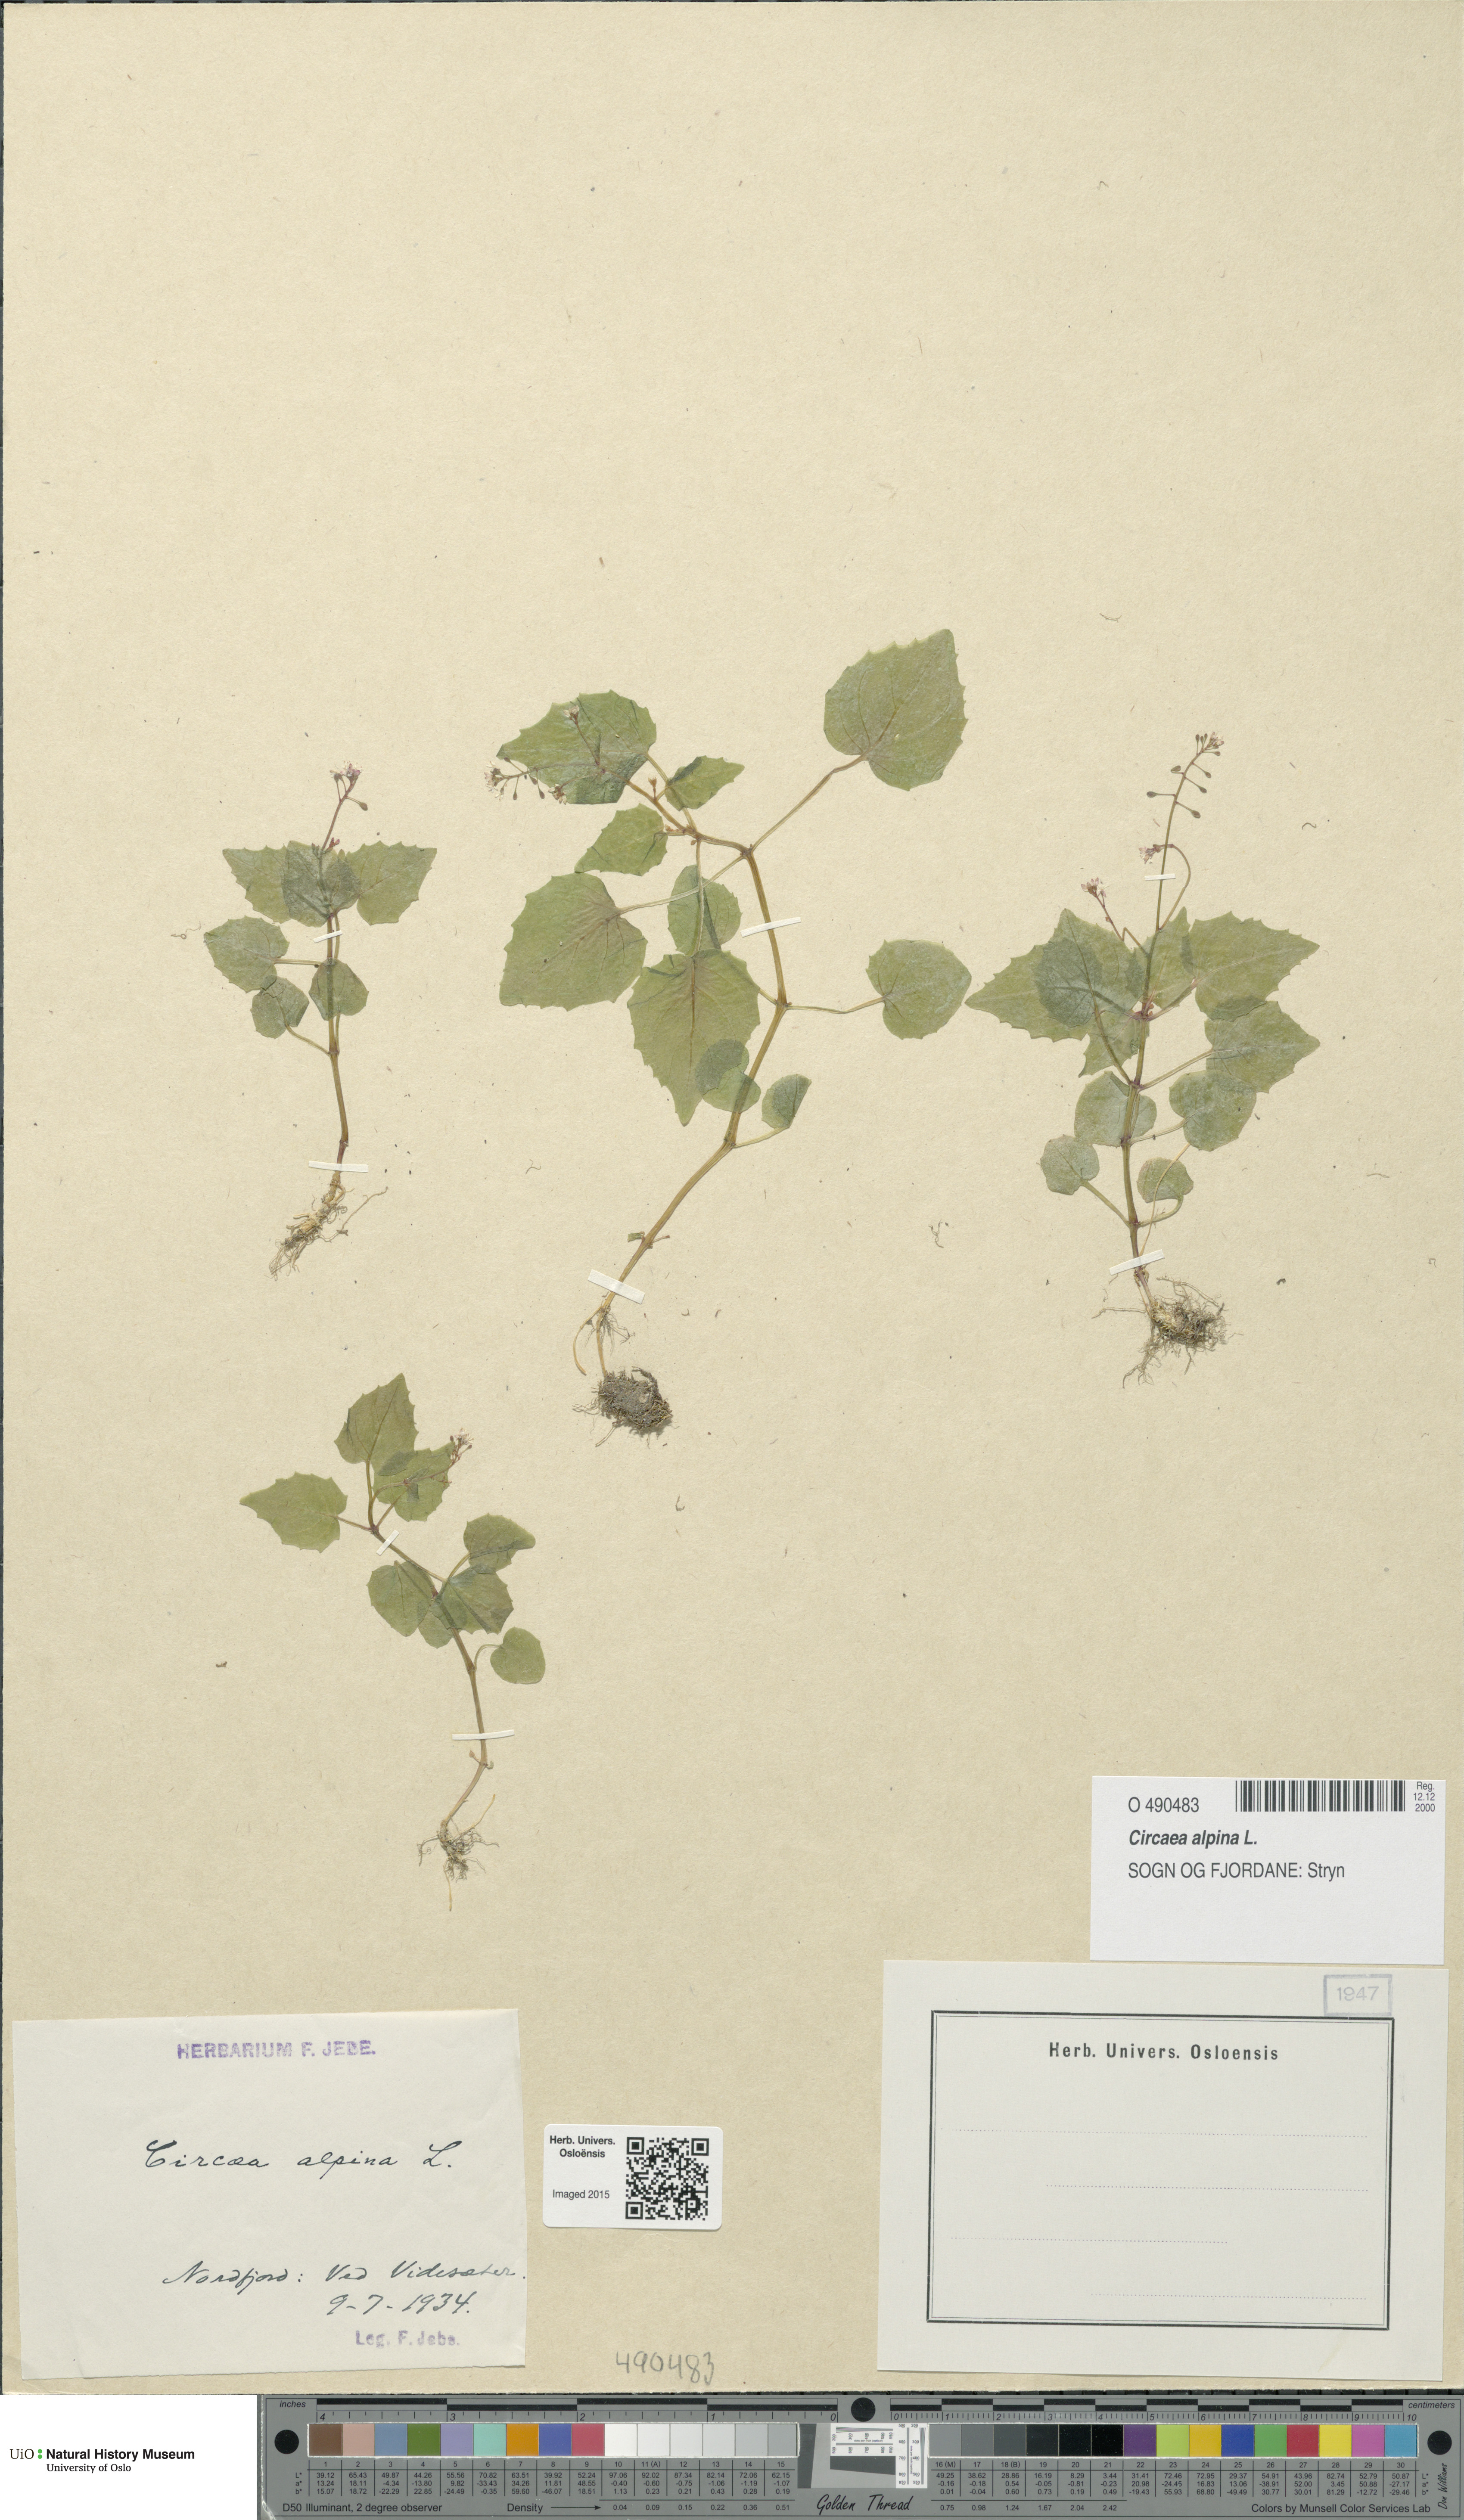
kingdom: Plantae
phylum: Tracheophyta
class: Magnoliopsida
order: Myrtales
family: Onagraceae
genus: Circaea
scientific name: Circaea alpina
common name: Alpine enchanter's-nightshade
